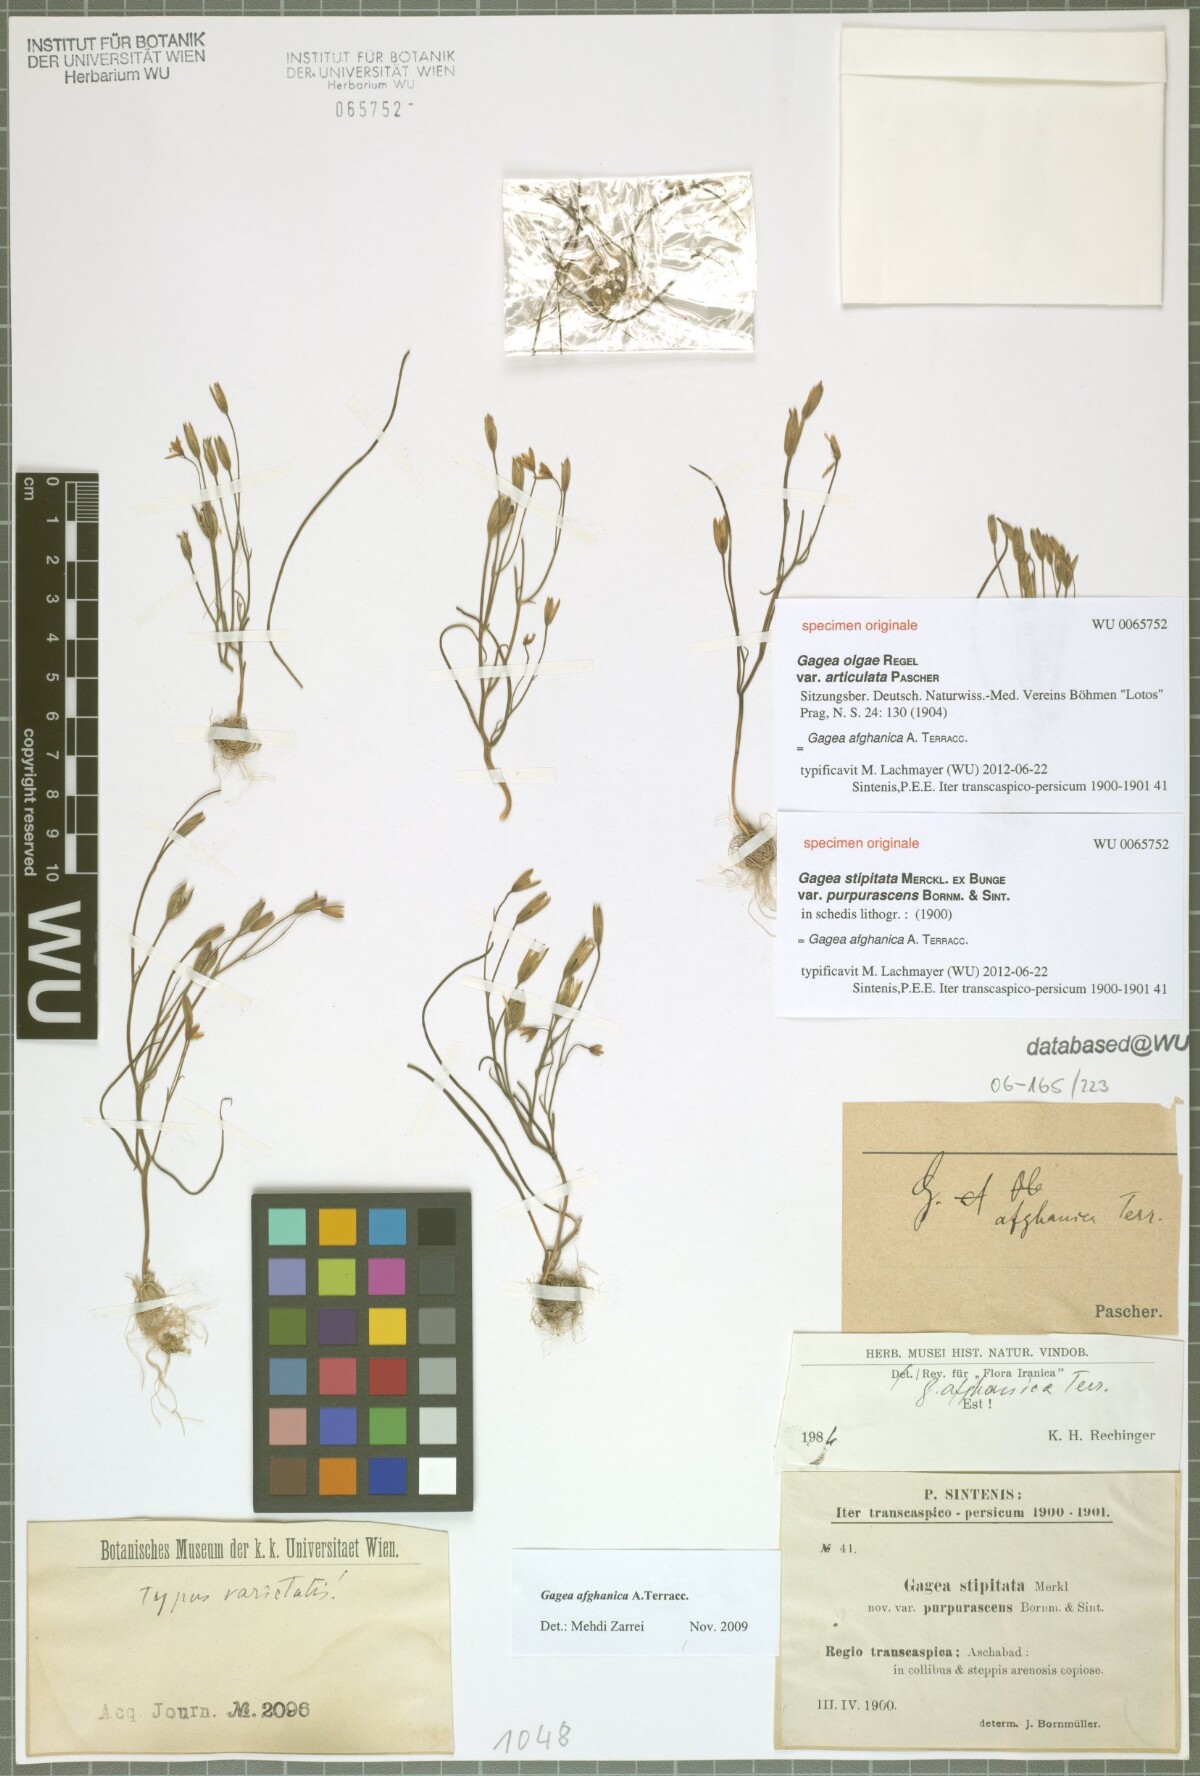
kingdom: Plantae
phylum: Tracheophyta
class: Liliopsida
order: Liliales
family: Liliaceae
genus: Gagea
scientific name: Gagea stipitata
